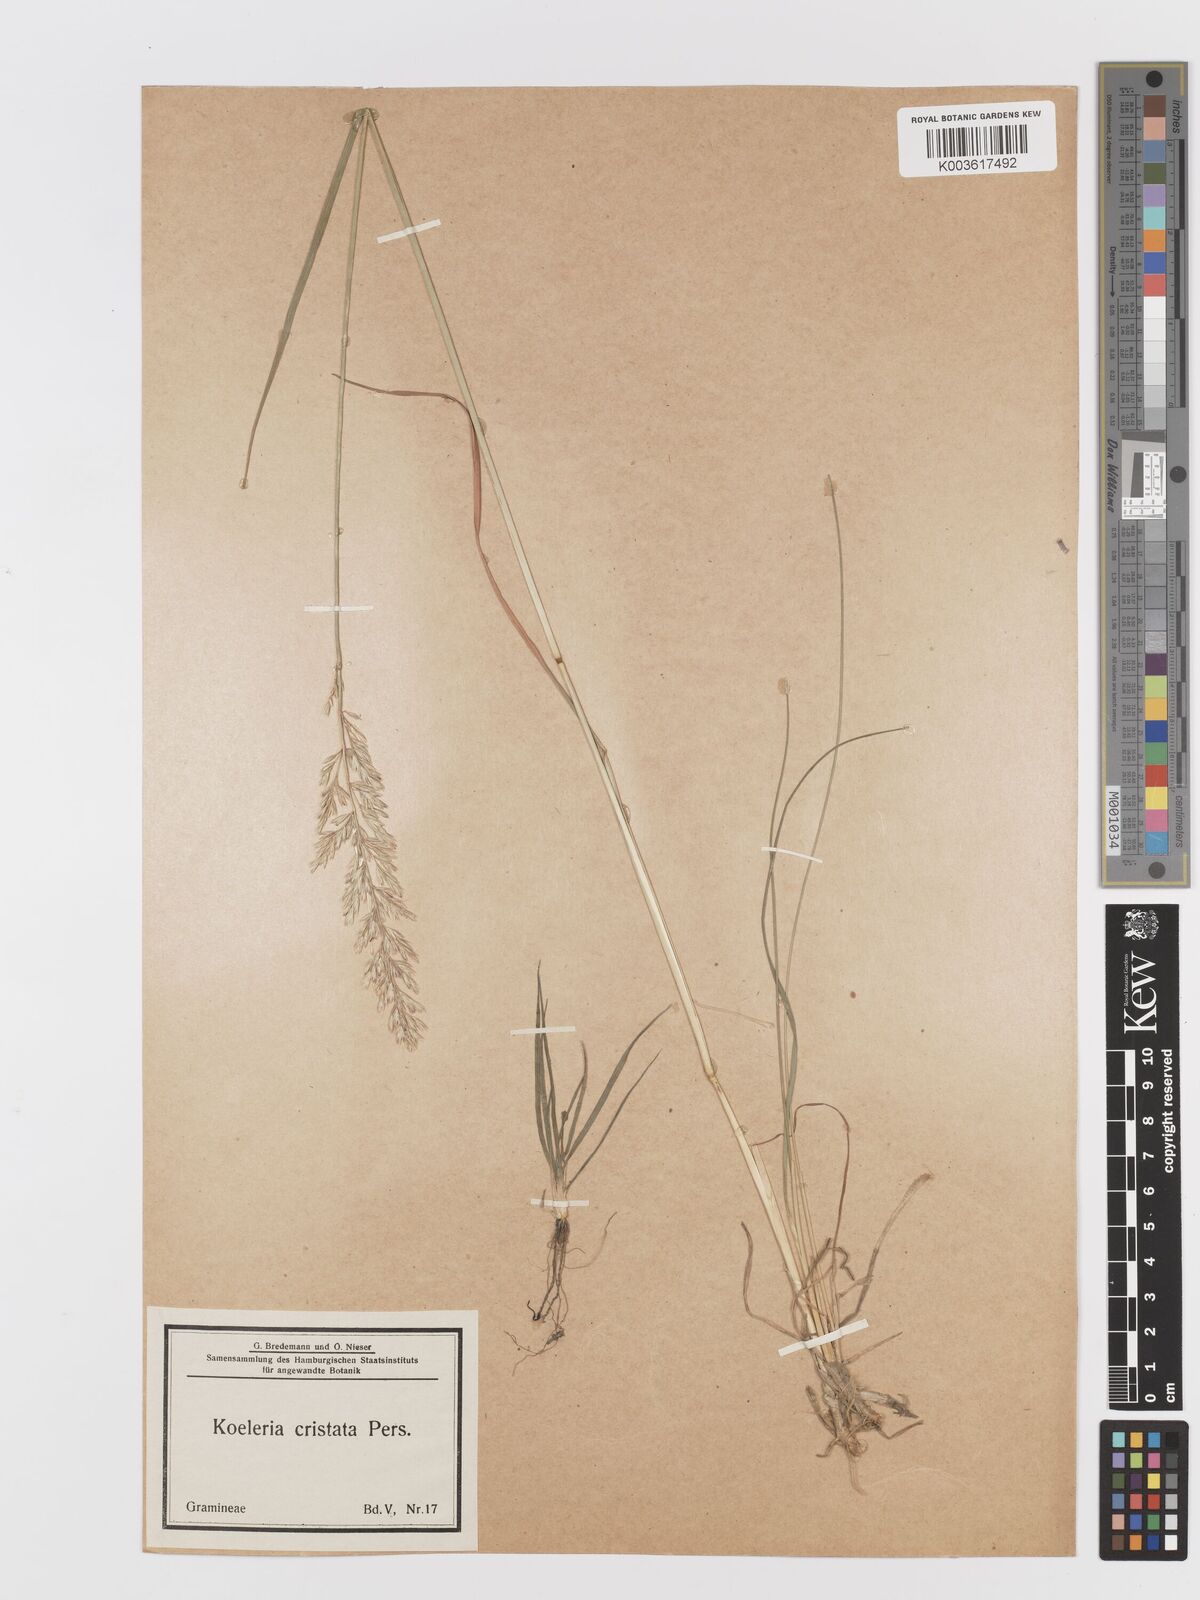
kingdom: Plantae
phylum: Tracheophyta
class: Liliopsida
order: Poales
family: Poaceae
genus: Koeleria
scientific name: Koeleria
